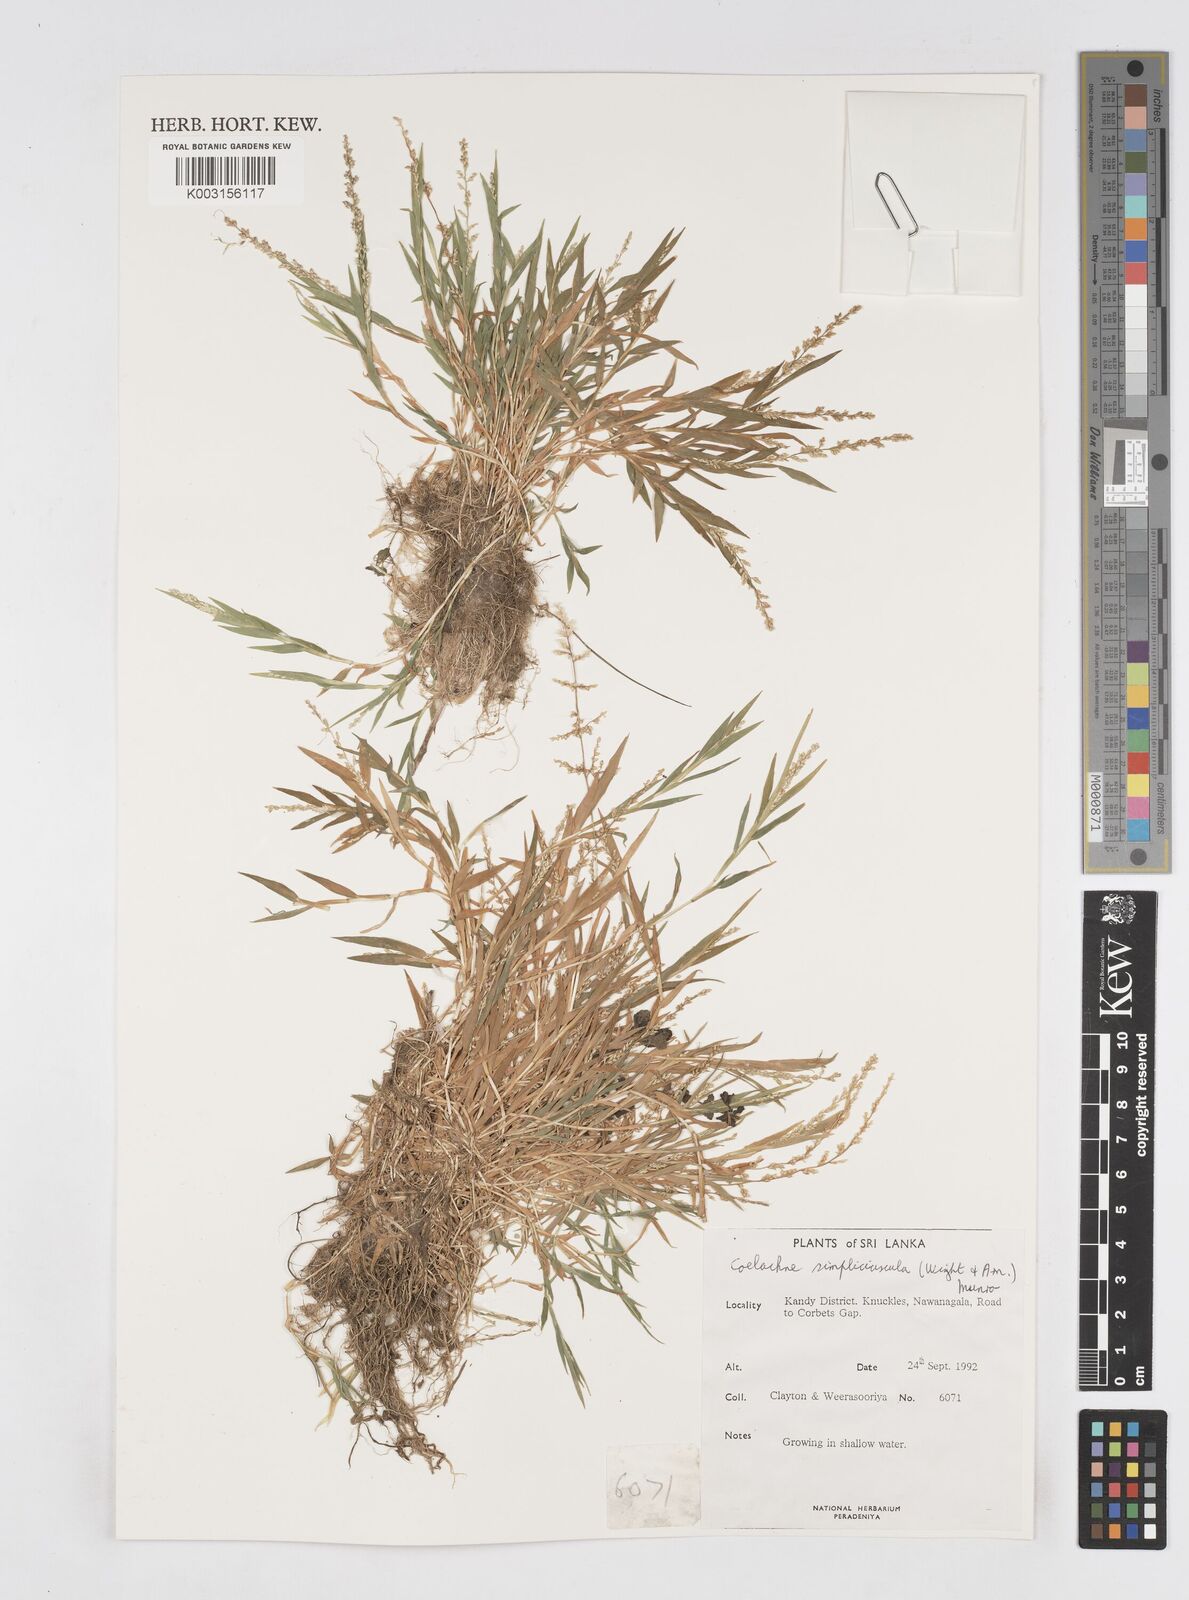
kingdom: Plantae
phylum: Tracheophyta
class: Liliopsida
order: Poales
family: Poaceae
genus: Coelachne
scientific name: Coelachne simpliciuscula
